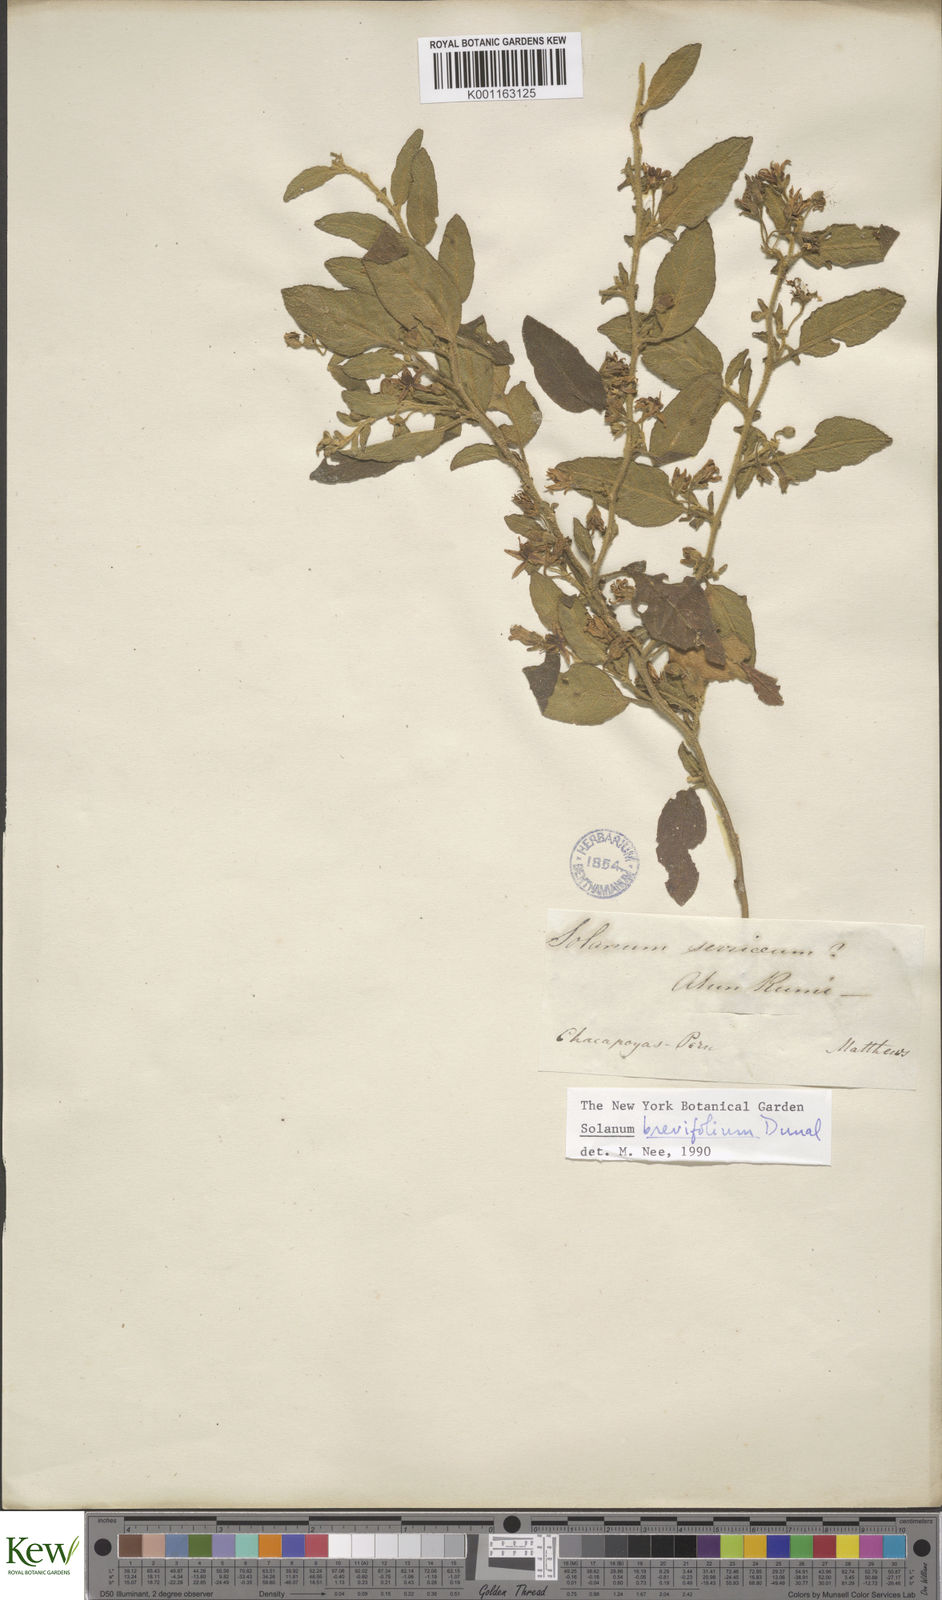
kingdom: Plantae
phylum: Tracheophyta
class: Magnoliopsida
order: Solanales
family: Solanaceae
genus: Solanum
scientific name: Solanum brevifolium
